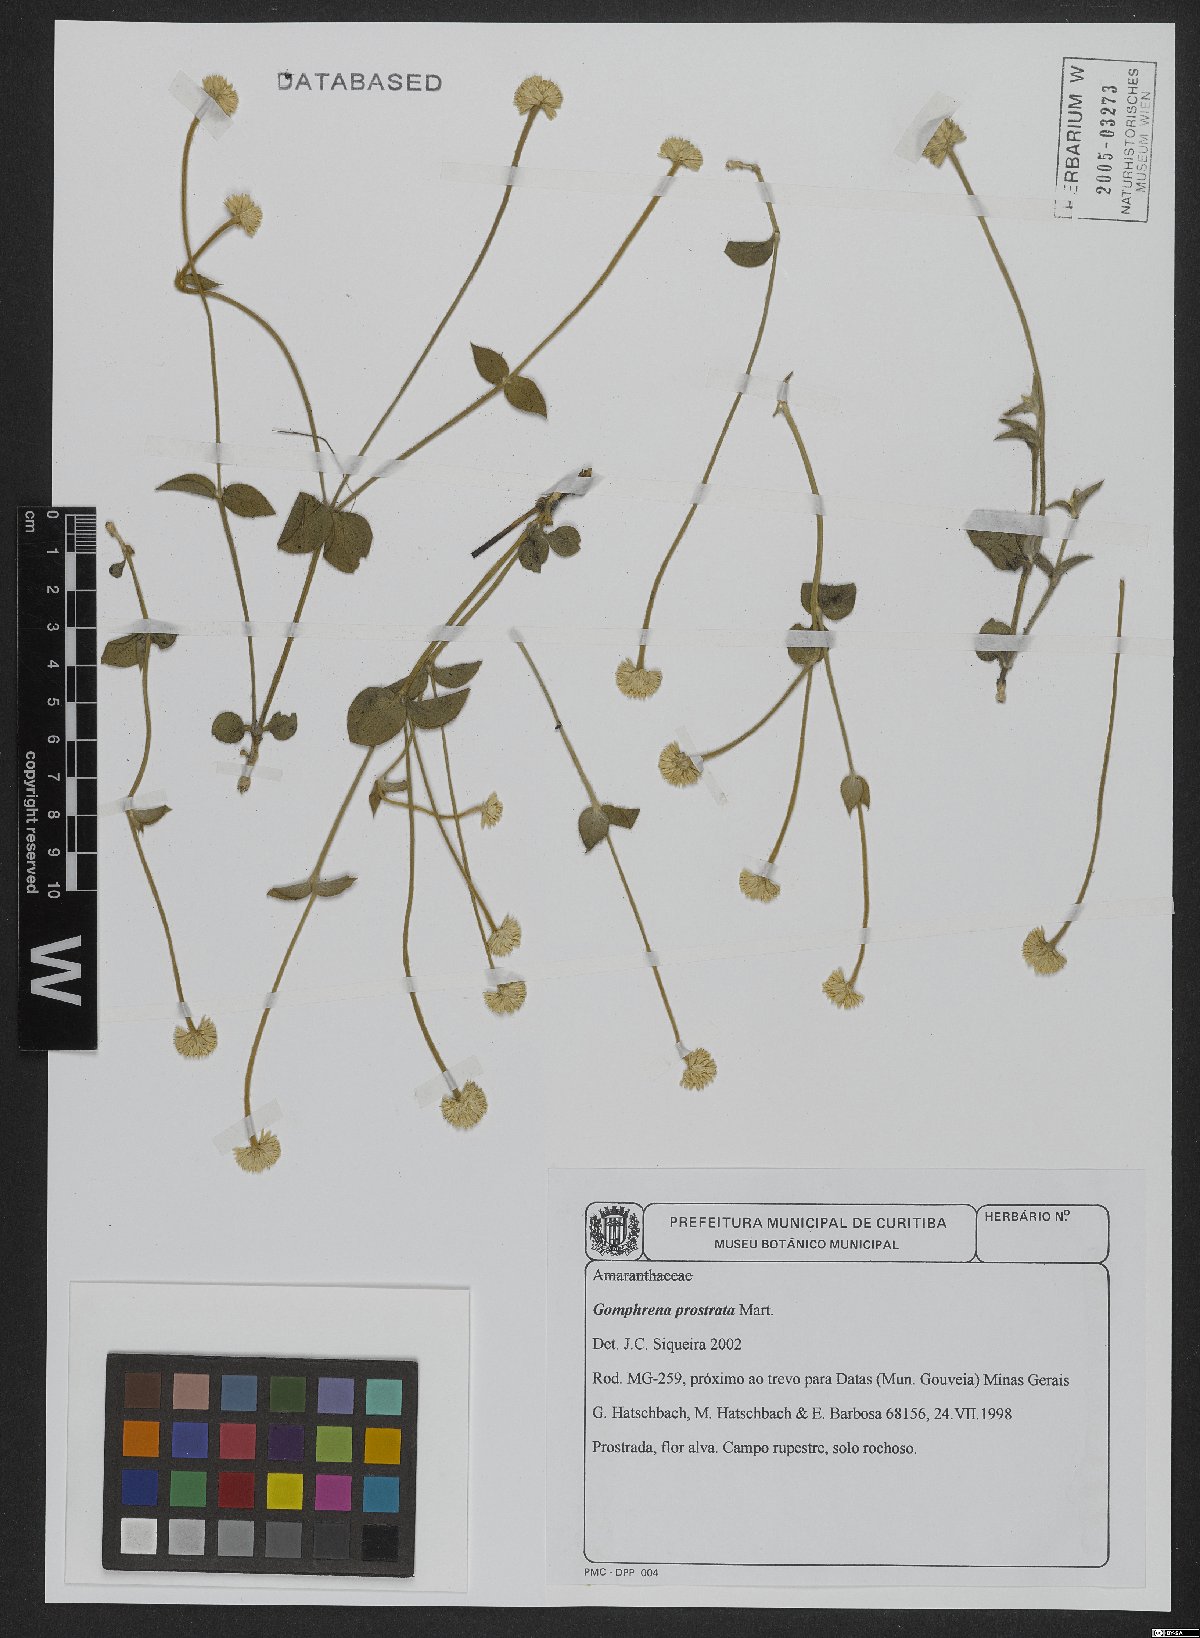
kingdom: Plantae
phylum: Tracheophyta
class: Magnoliopsida
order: Caryophyllales
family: Amaranthaceae
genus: Gomphrena
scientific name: Gomphrena prostrata
